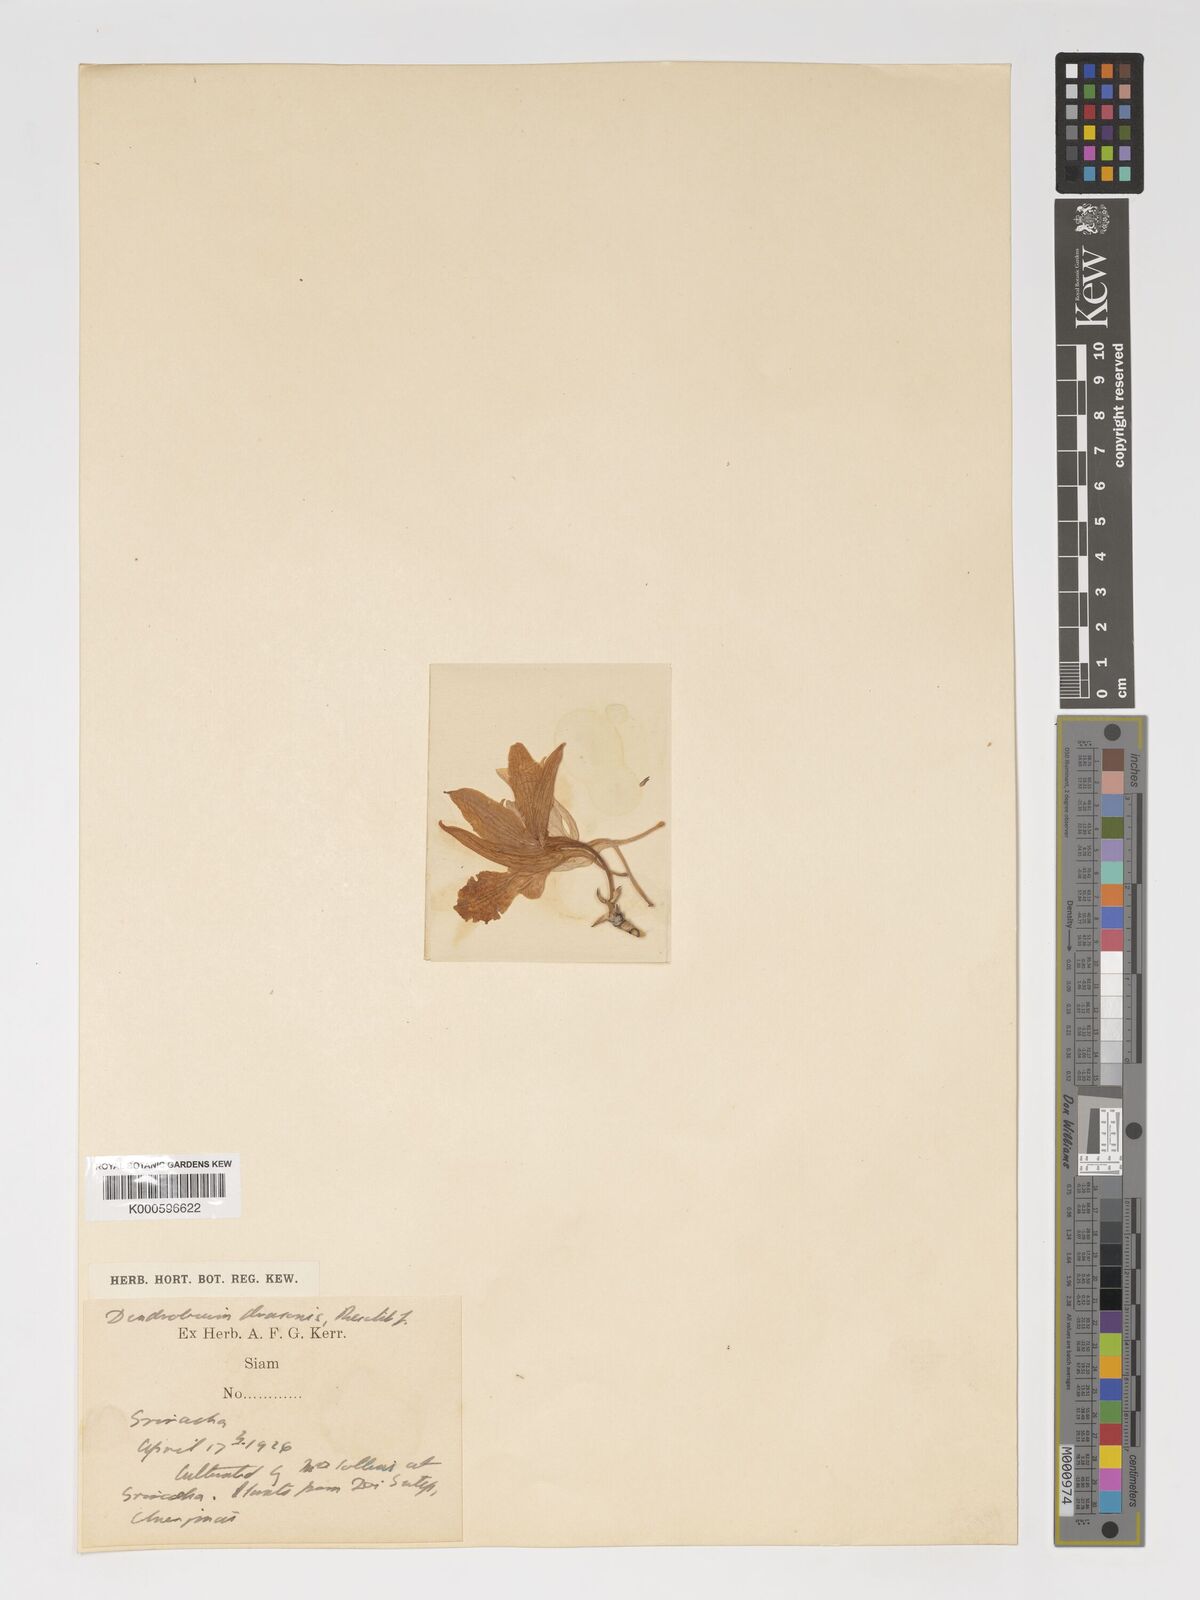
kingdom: Plantae
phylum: Tracheophyta
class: Liliopsida
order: Asparagales
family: Orchidaceae
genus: Dendrobium
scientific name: Dendrobium draconis
